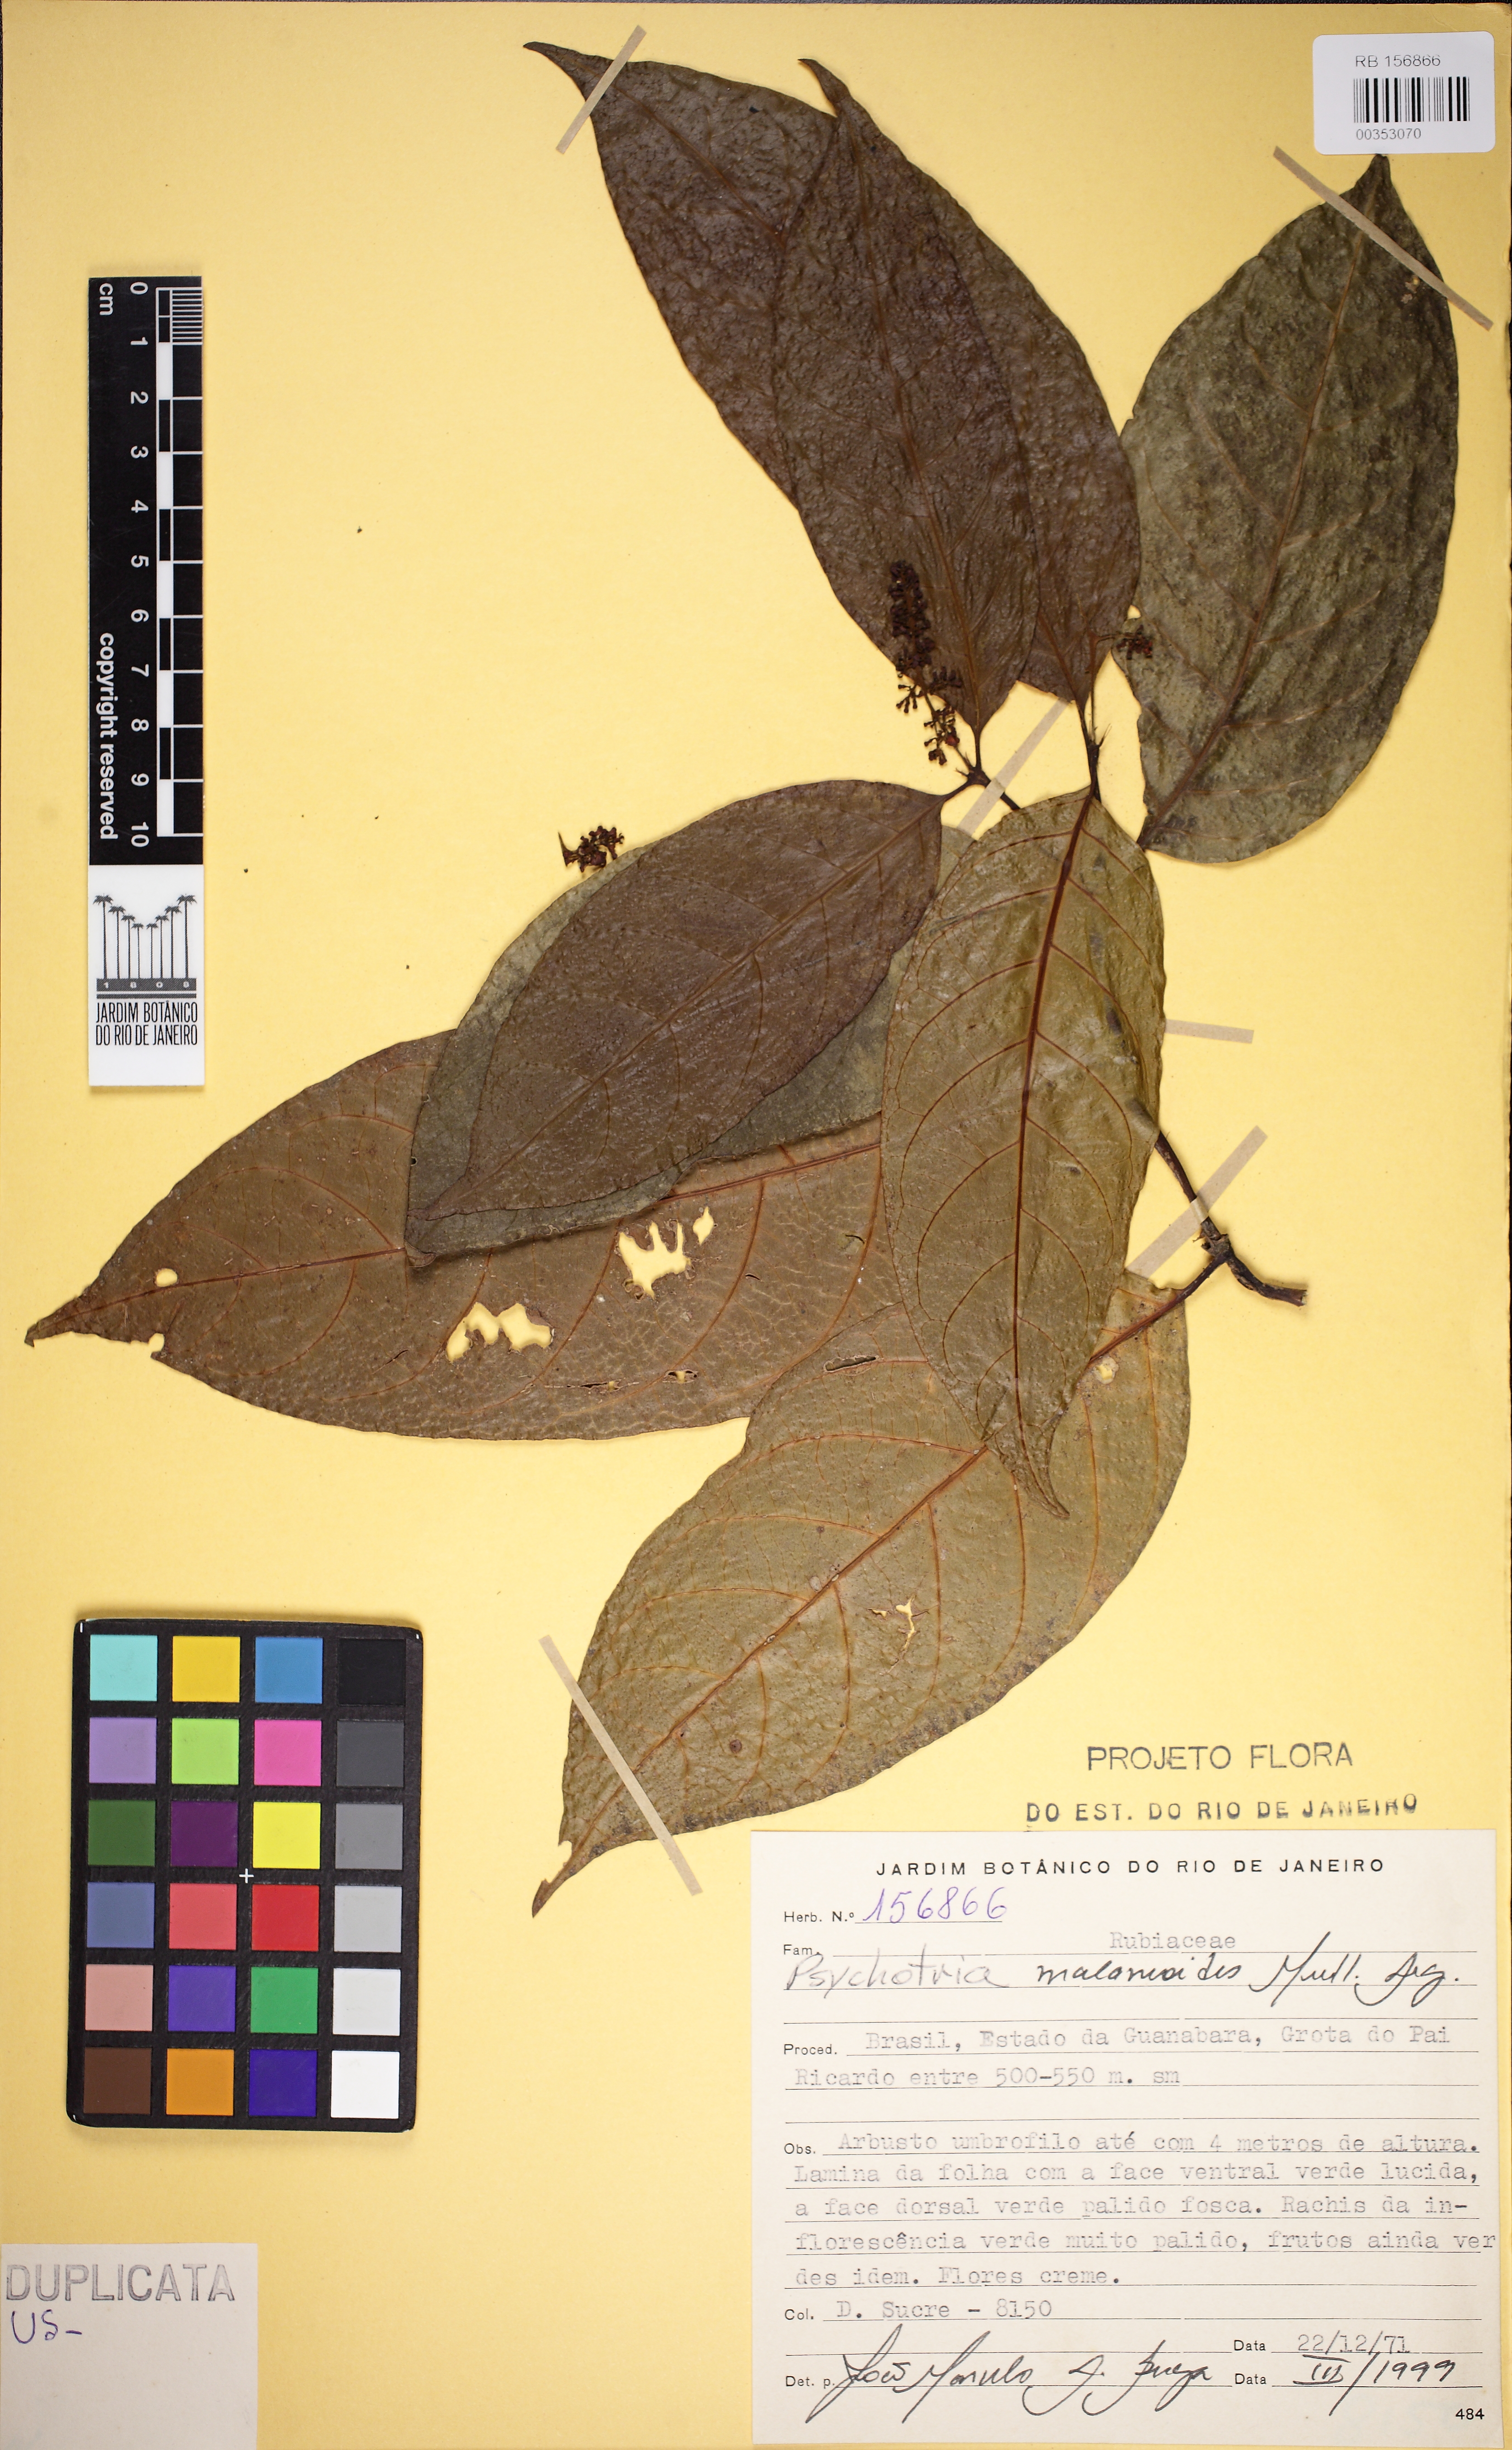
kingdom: Plantae
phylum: Tracheophyta
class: Magnoliopsida
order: Gentianales
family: Rubiaceae
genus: Palicourea
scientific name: Palicourea malaneoides
